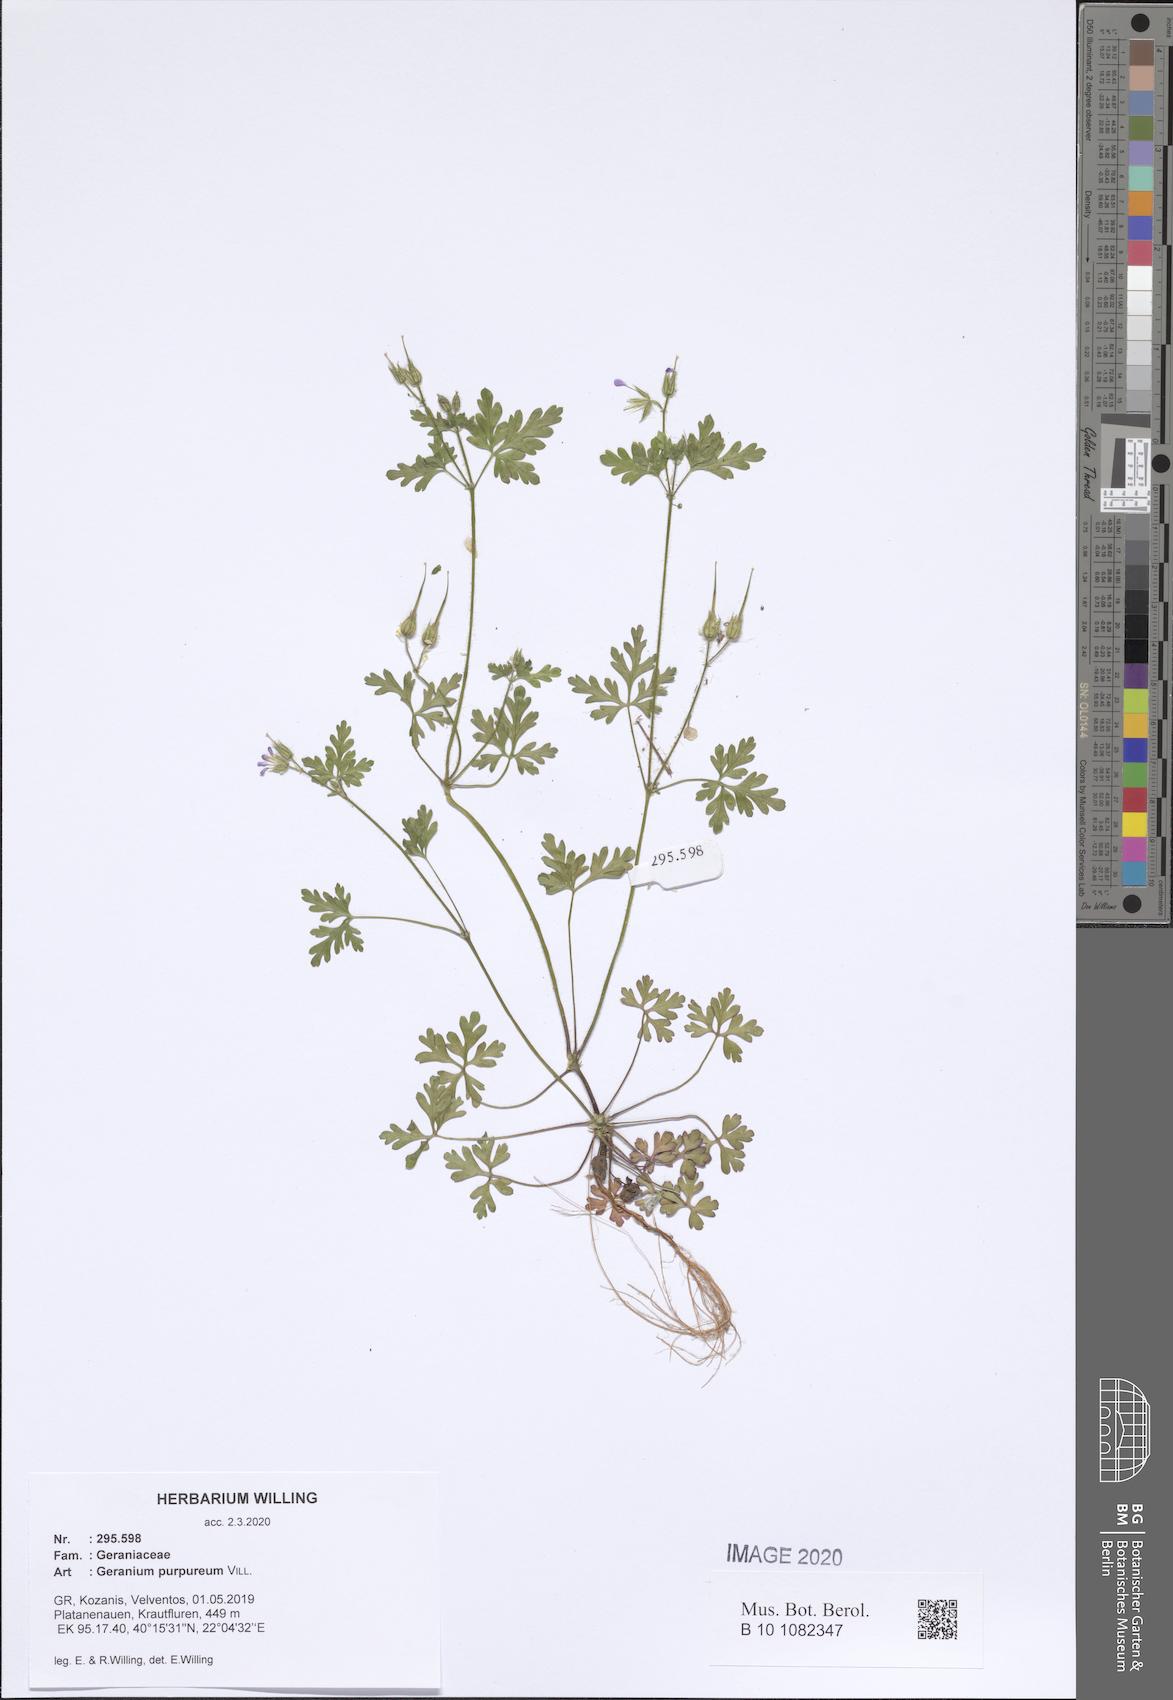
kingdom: Plantae
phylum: Tracheophyta
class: Magnoliopsida
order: Geraniales
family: Geraniaceae
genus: Geranium
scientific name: Geranium purpureum
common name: Little-robin
